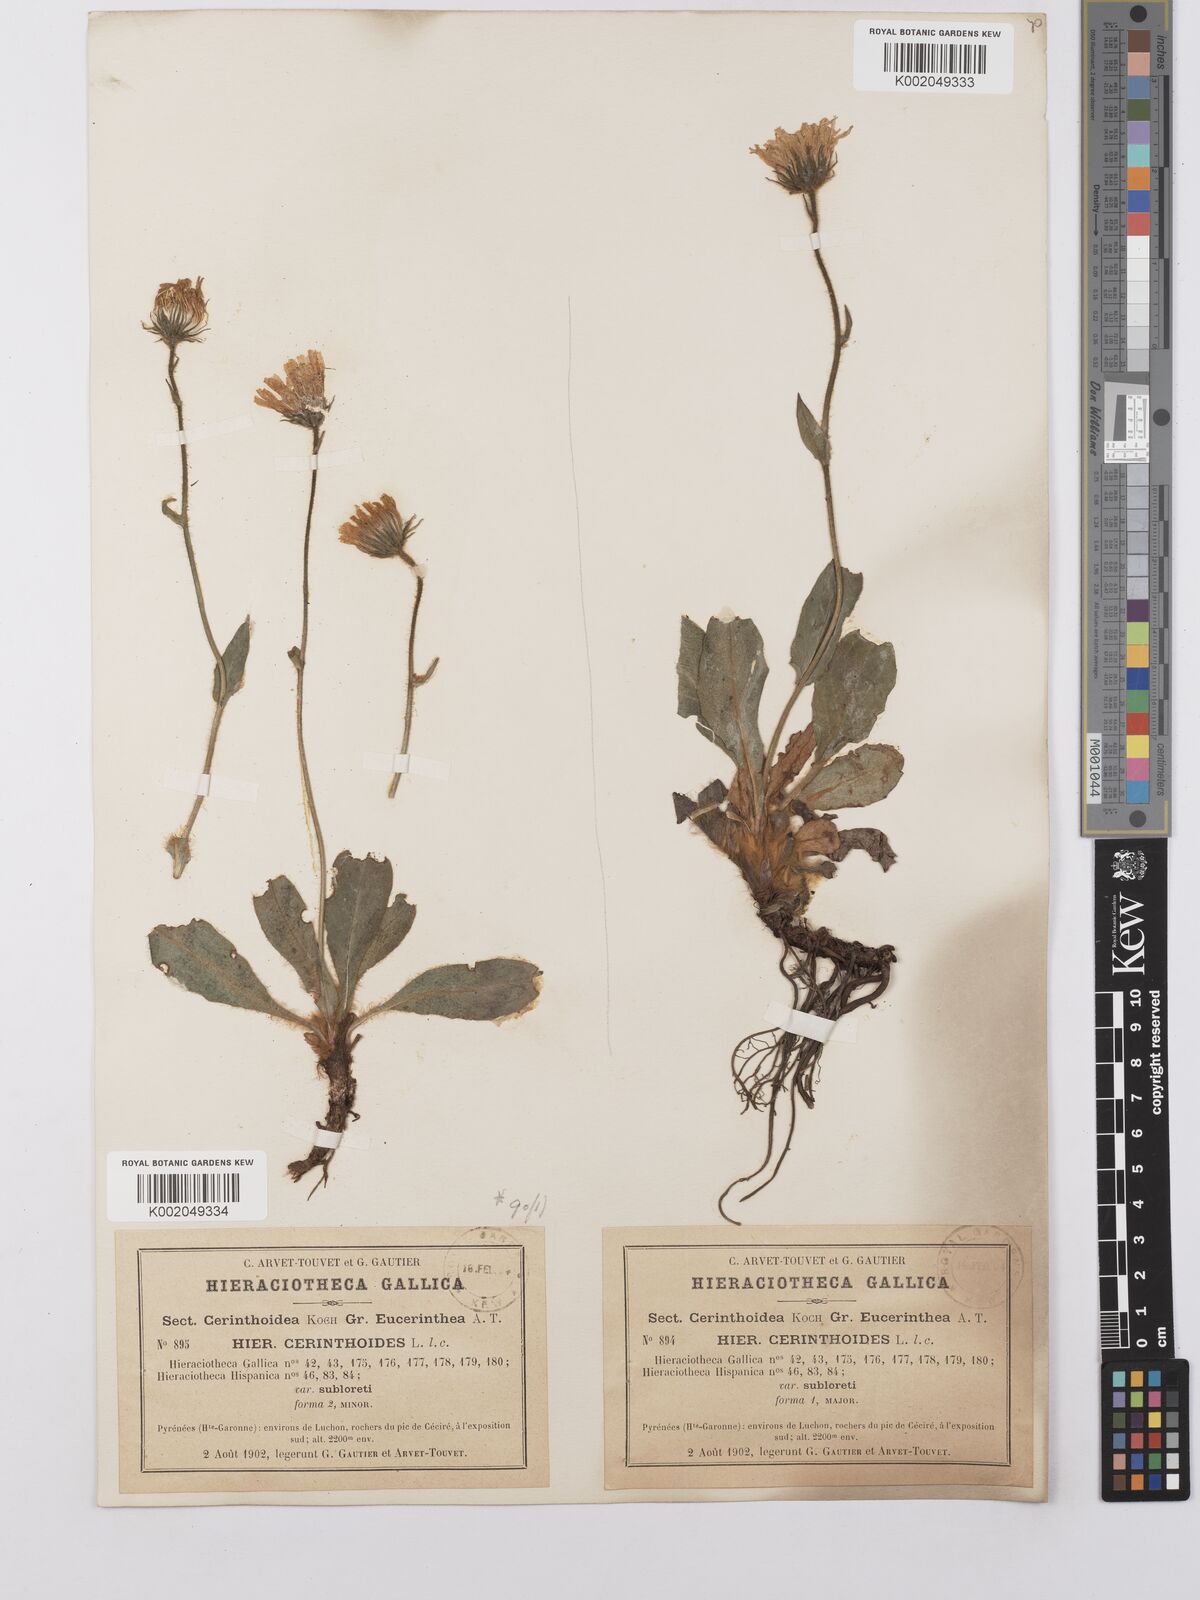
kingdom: Plantae
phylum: Tracheophyta
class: Magnoliopsida
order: Asterales
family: Asteraceae
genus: Hieracium
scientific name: Hieracium cerinthoides
